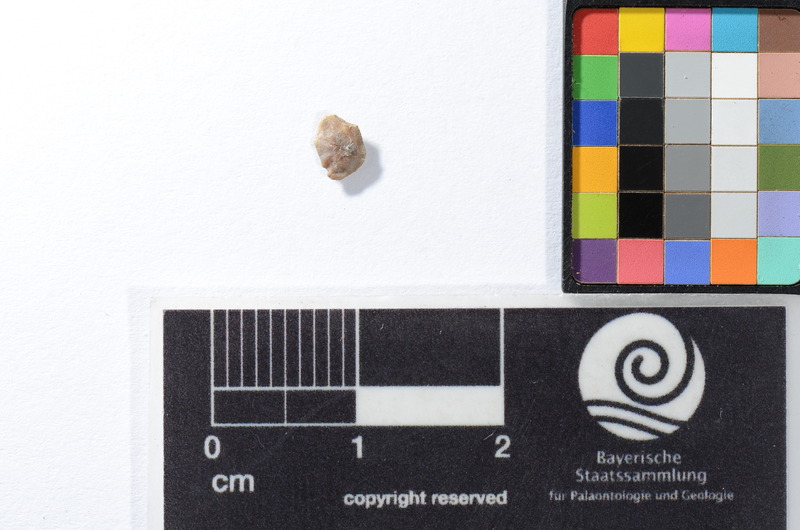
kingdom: Animalia
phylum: Chordata
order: Perciformes
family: Sparidae
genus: Pagellus
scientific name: Pagellus gregarius
